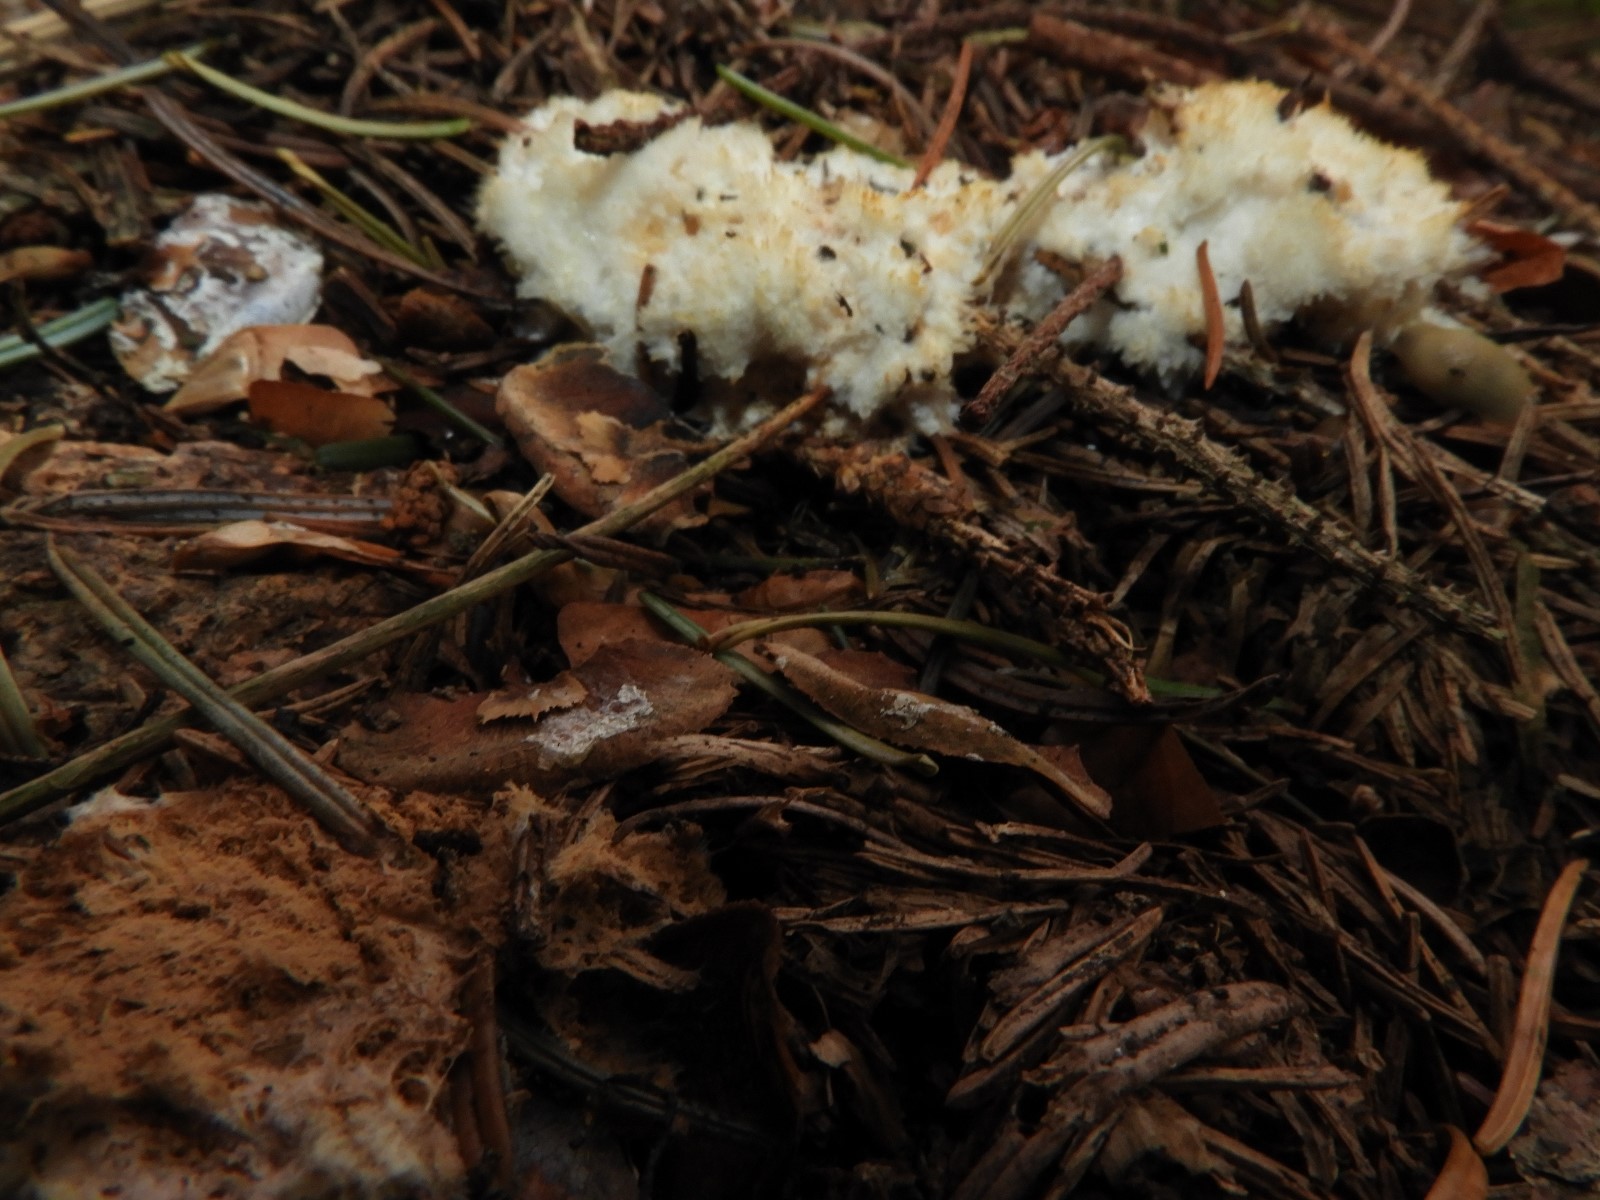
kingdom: Fungi
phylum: Basidiomycota
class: Agaricomycetes
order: Boletales
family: Serpulaceae
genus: Serpula
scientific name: Serpula himantioides
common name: tyndkødet hussvamp
